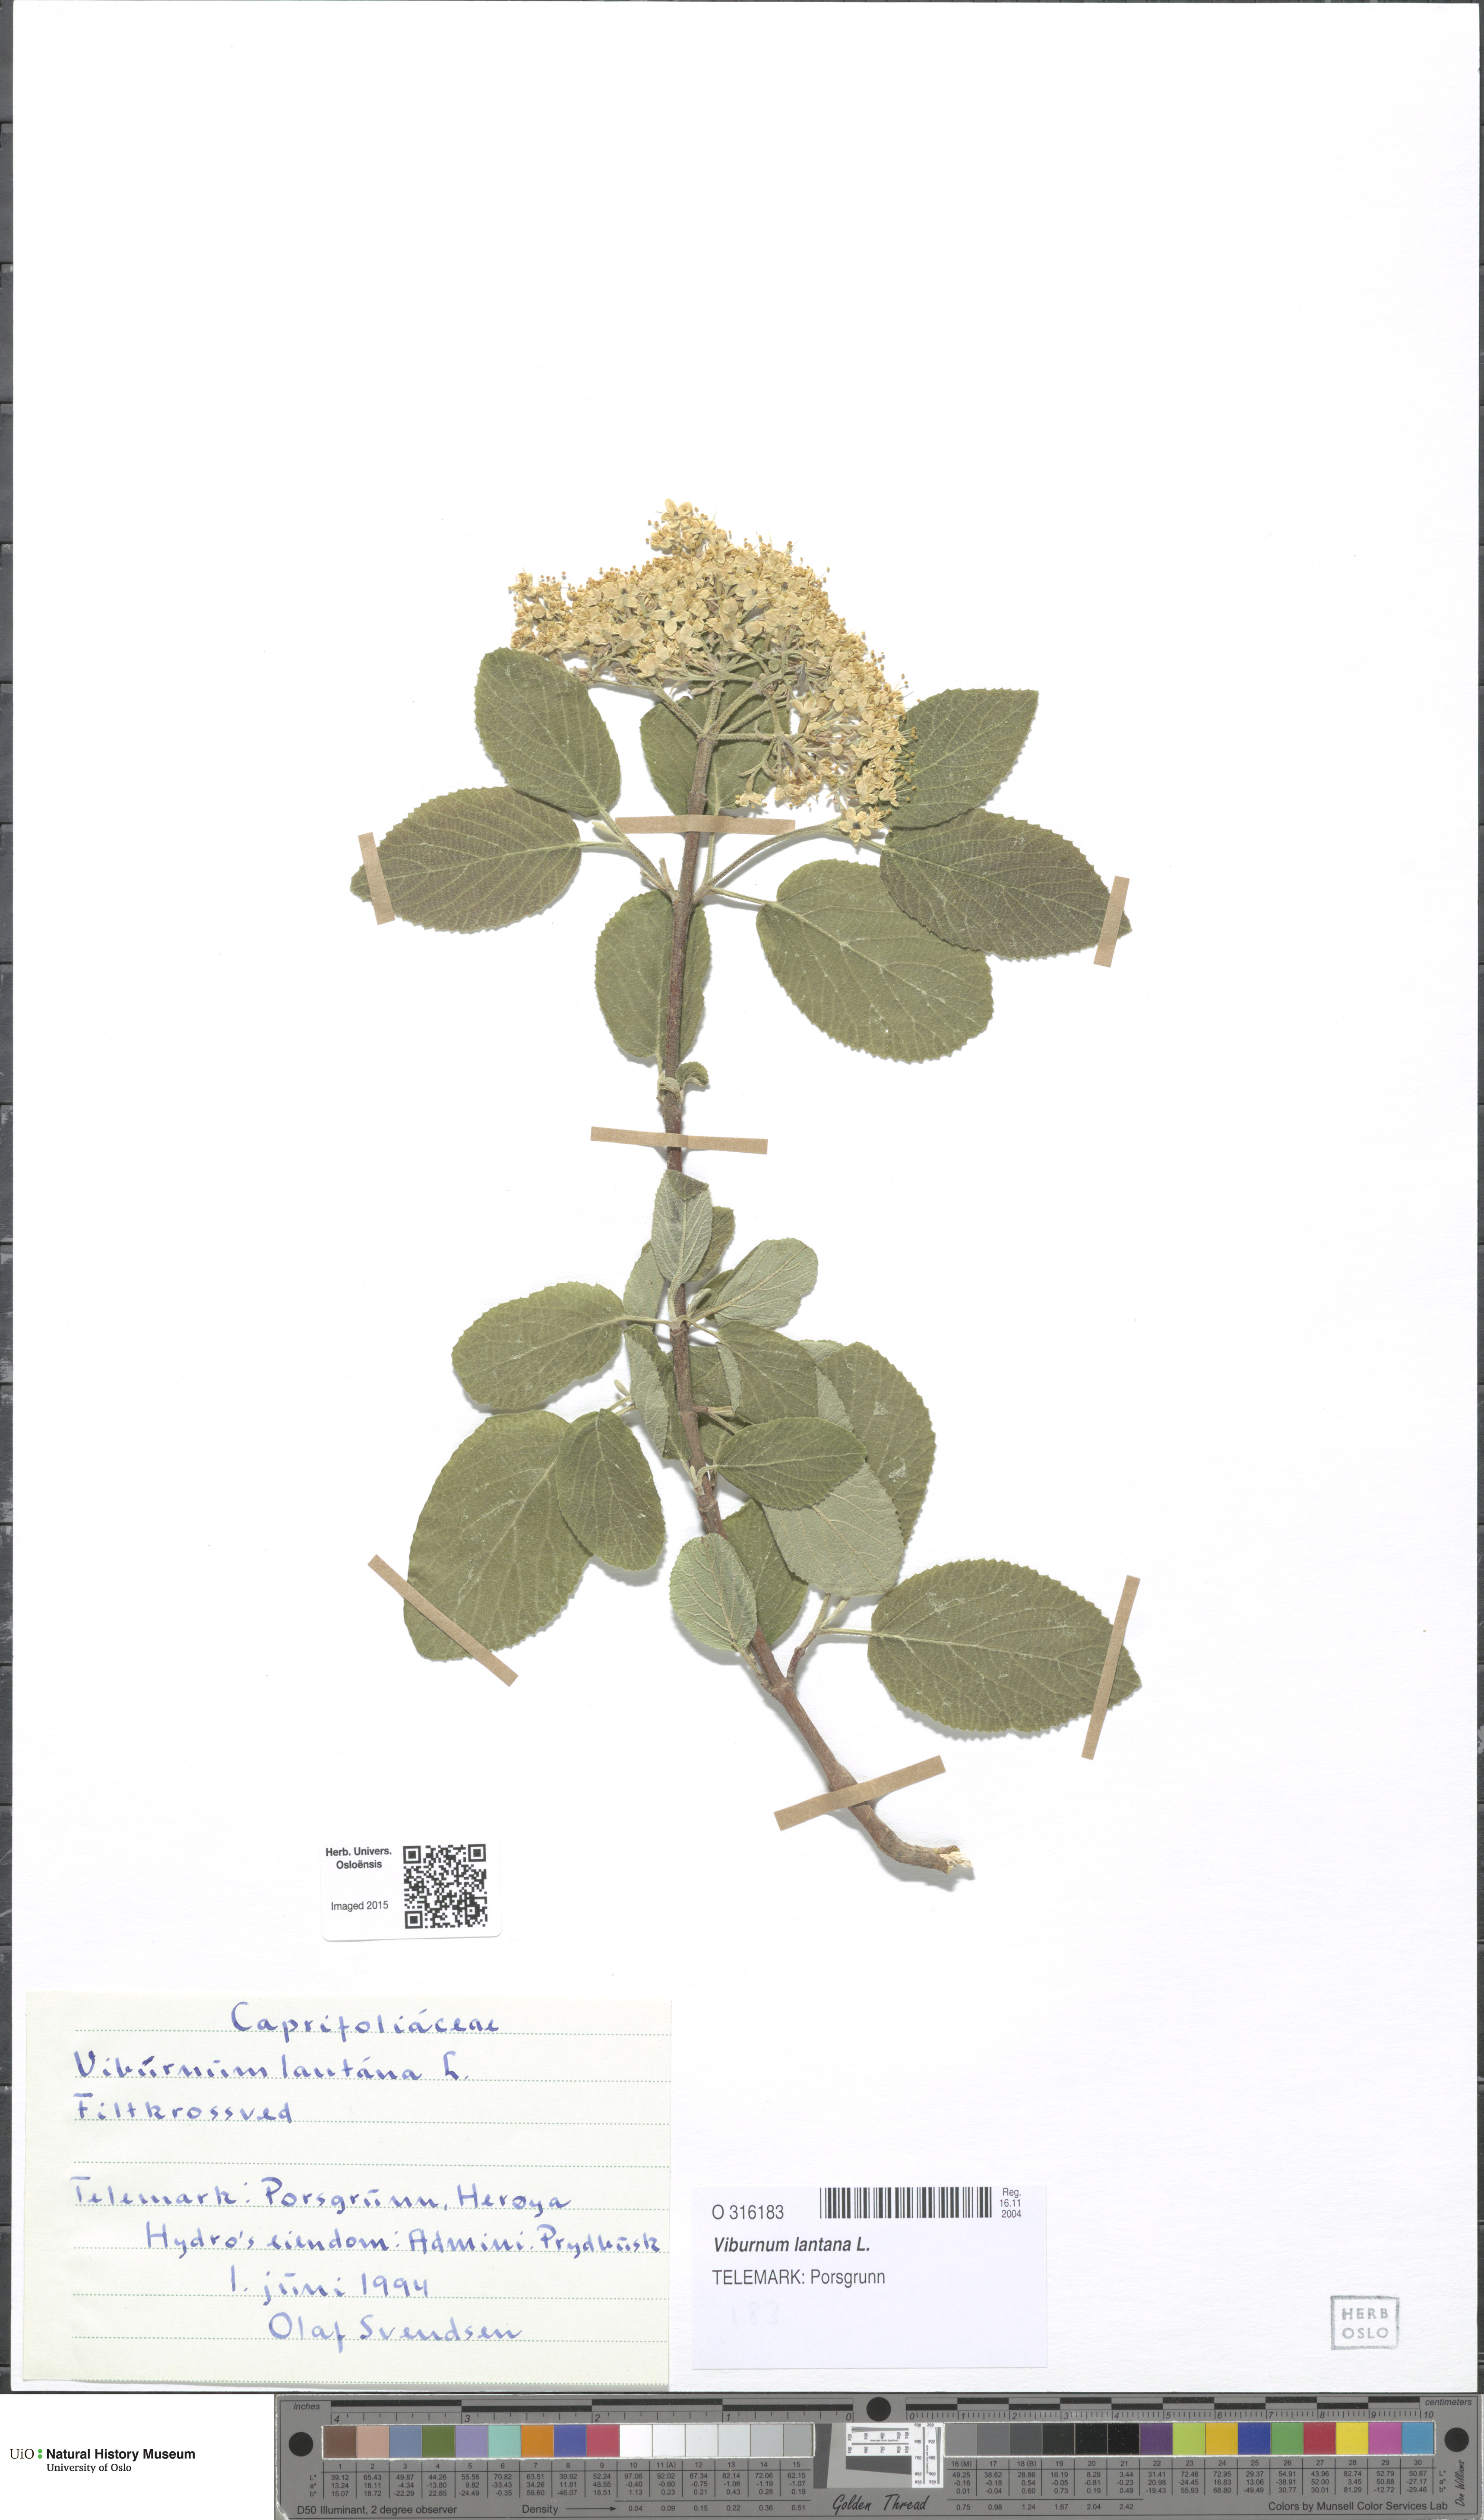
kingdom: Plantae
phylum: Tracheophyta
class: Magnoliopsida
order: Dipsacales
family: Viburnaceae
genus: Viburnum
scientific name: Viburnum lantana
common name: Wayfaring tree
